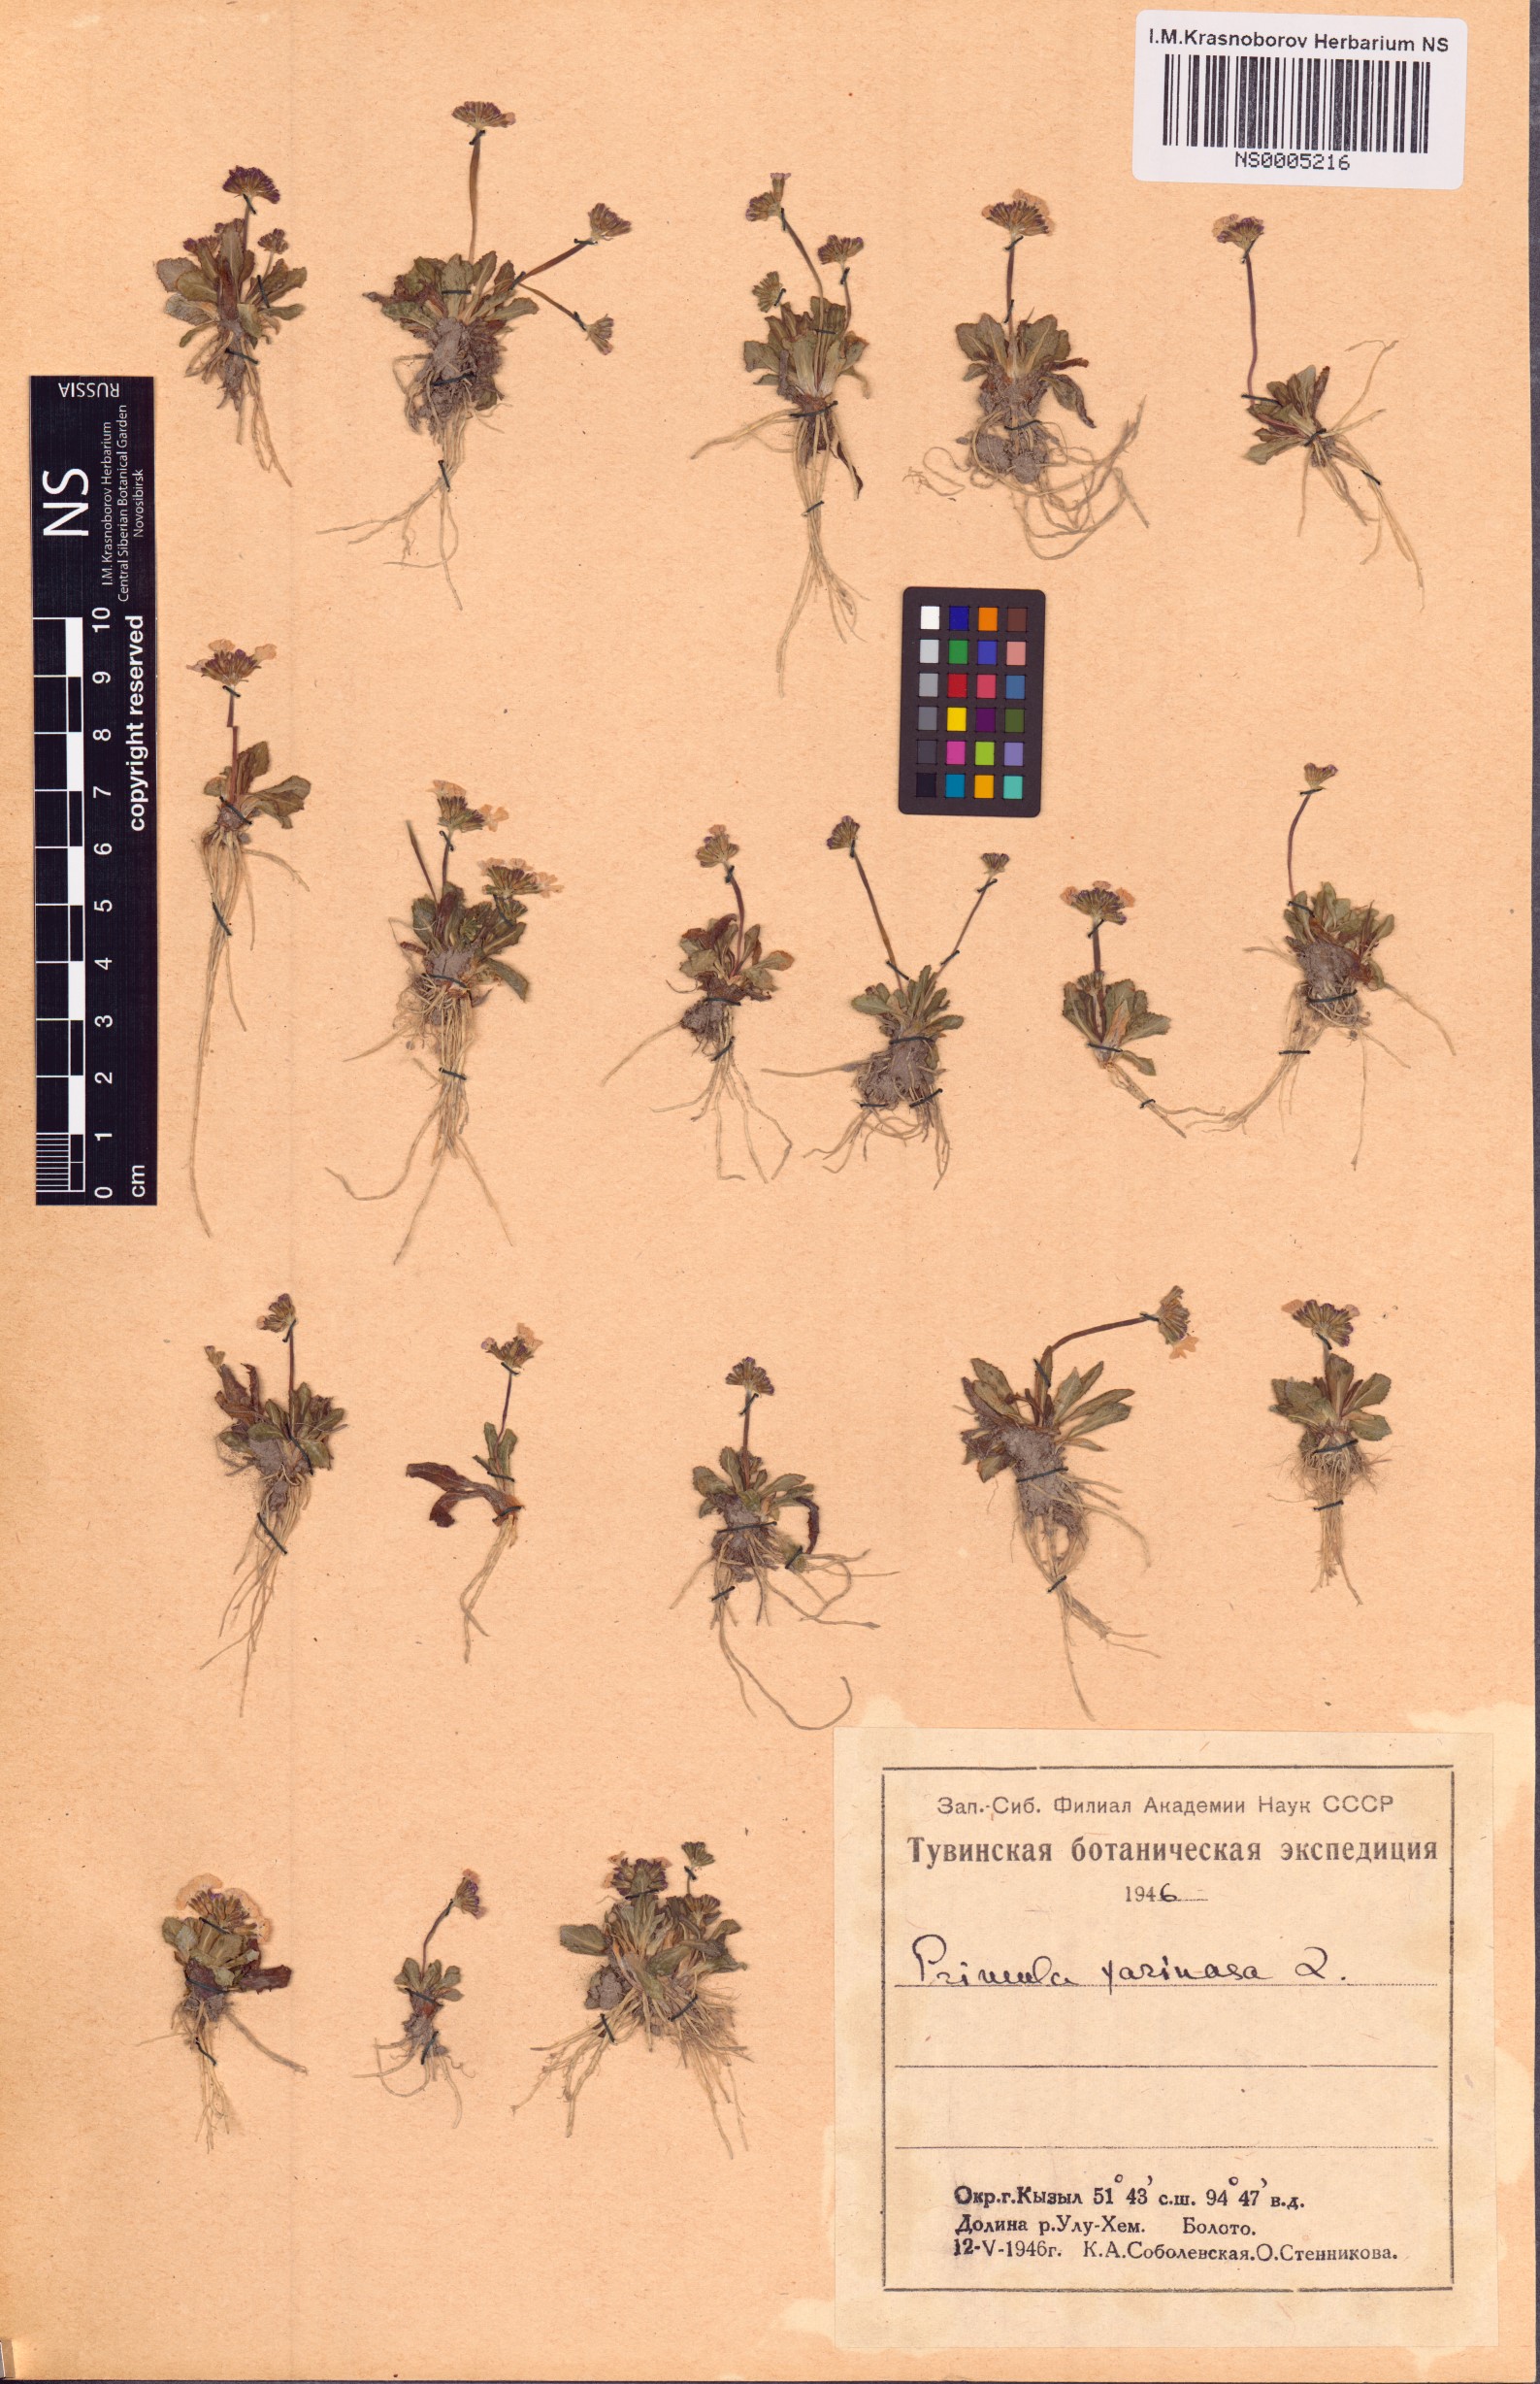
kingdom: Plantae
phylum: Tracheophyta
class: Magnoliopsida
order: Ericales
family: Primulaceae
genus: Primula
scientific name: Primula farinosa
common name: Bird's-eye primrose
